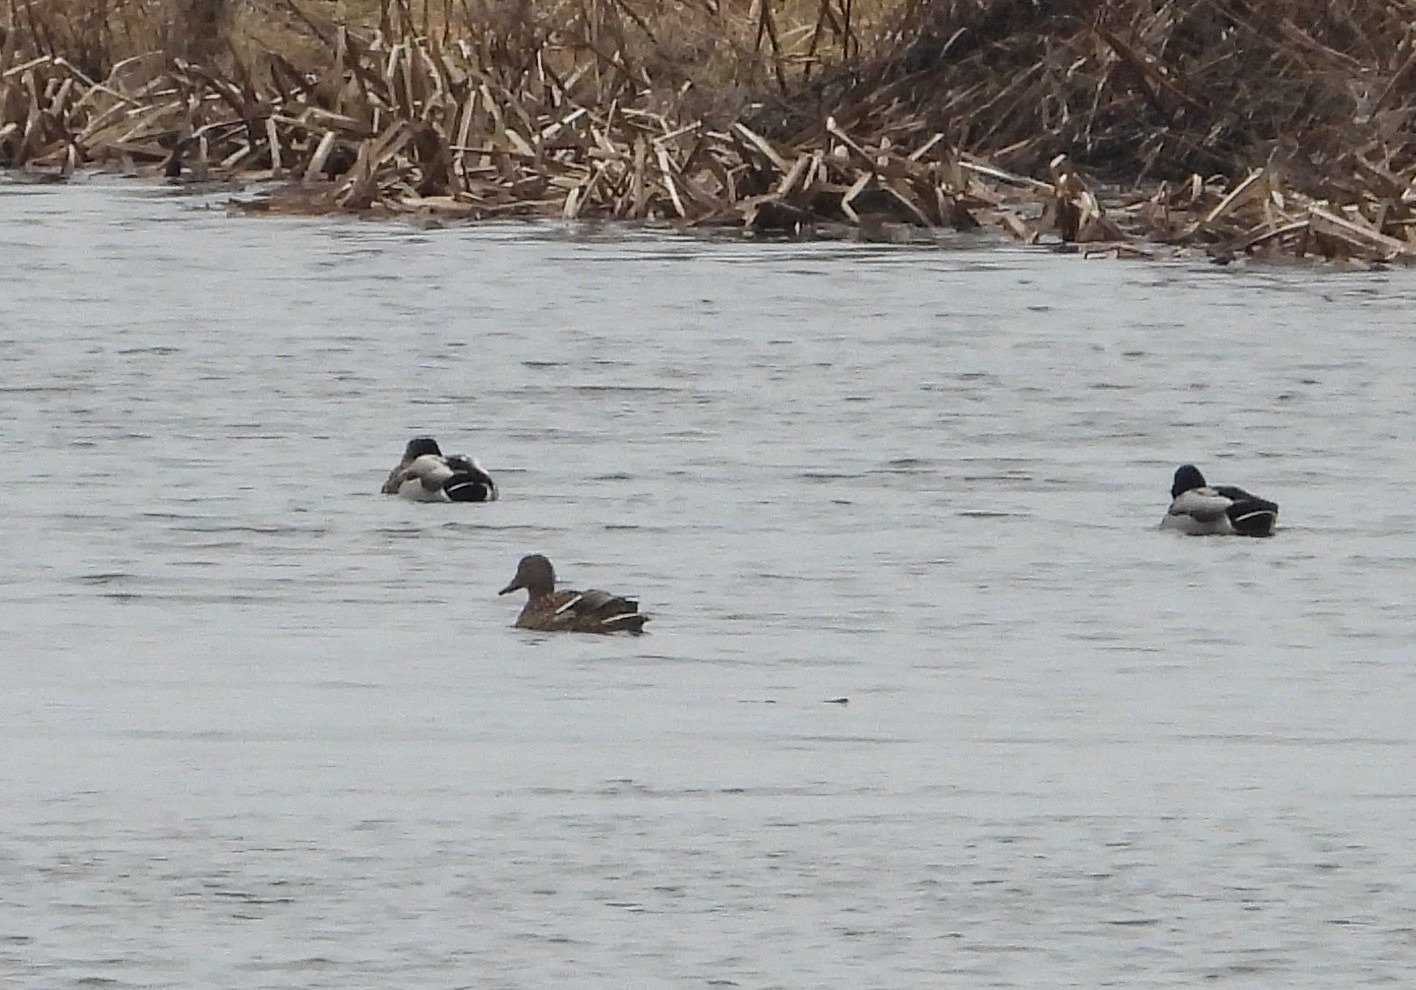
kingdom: Animalia
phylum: Chordata
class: Aves
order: Anseriformes
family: Anatidae
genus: Anas
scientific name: Anas platyrhynchos
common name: Gråand
